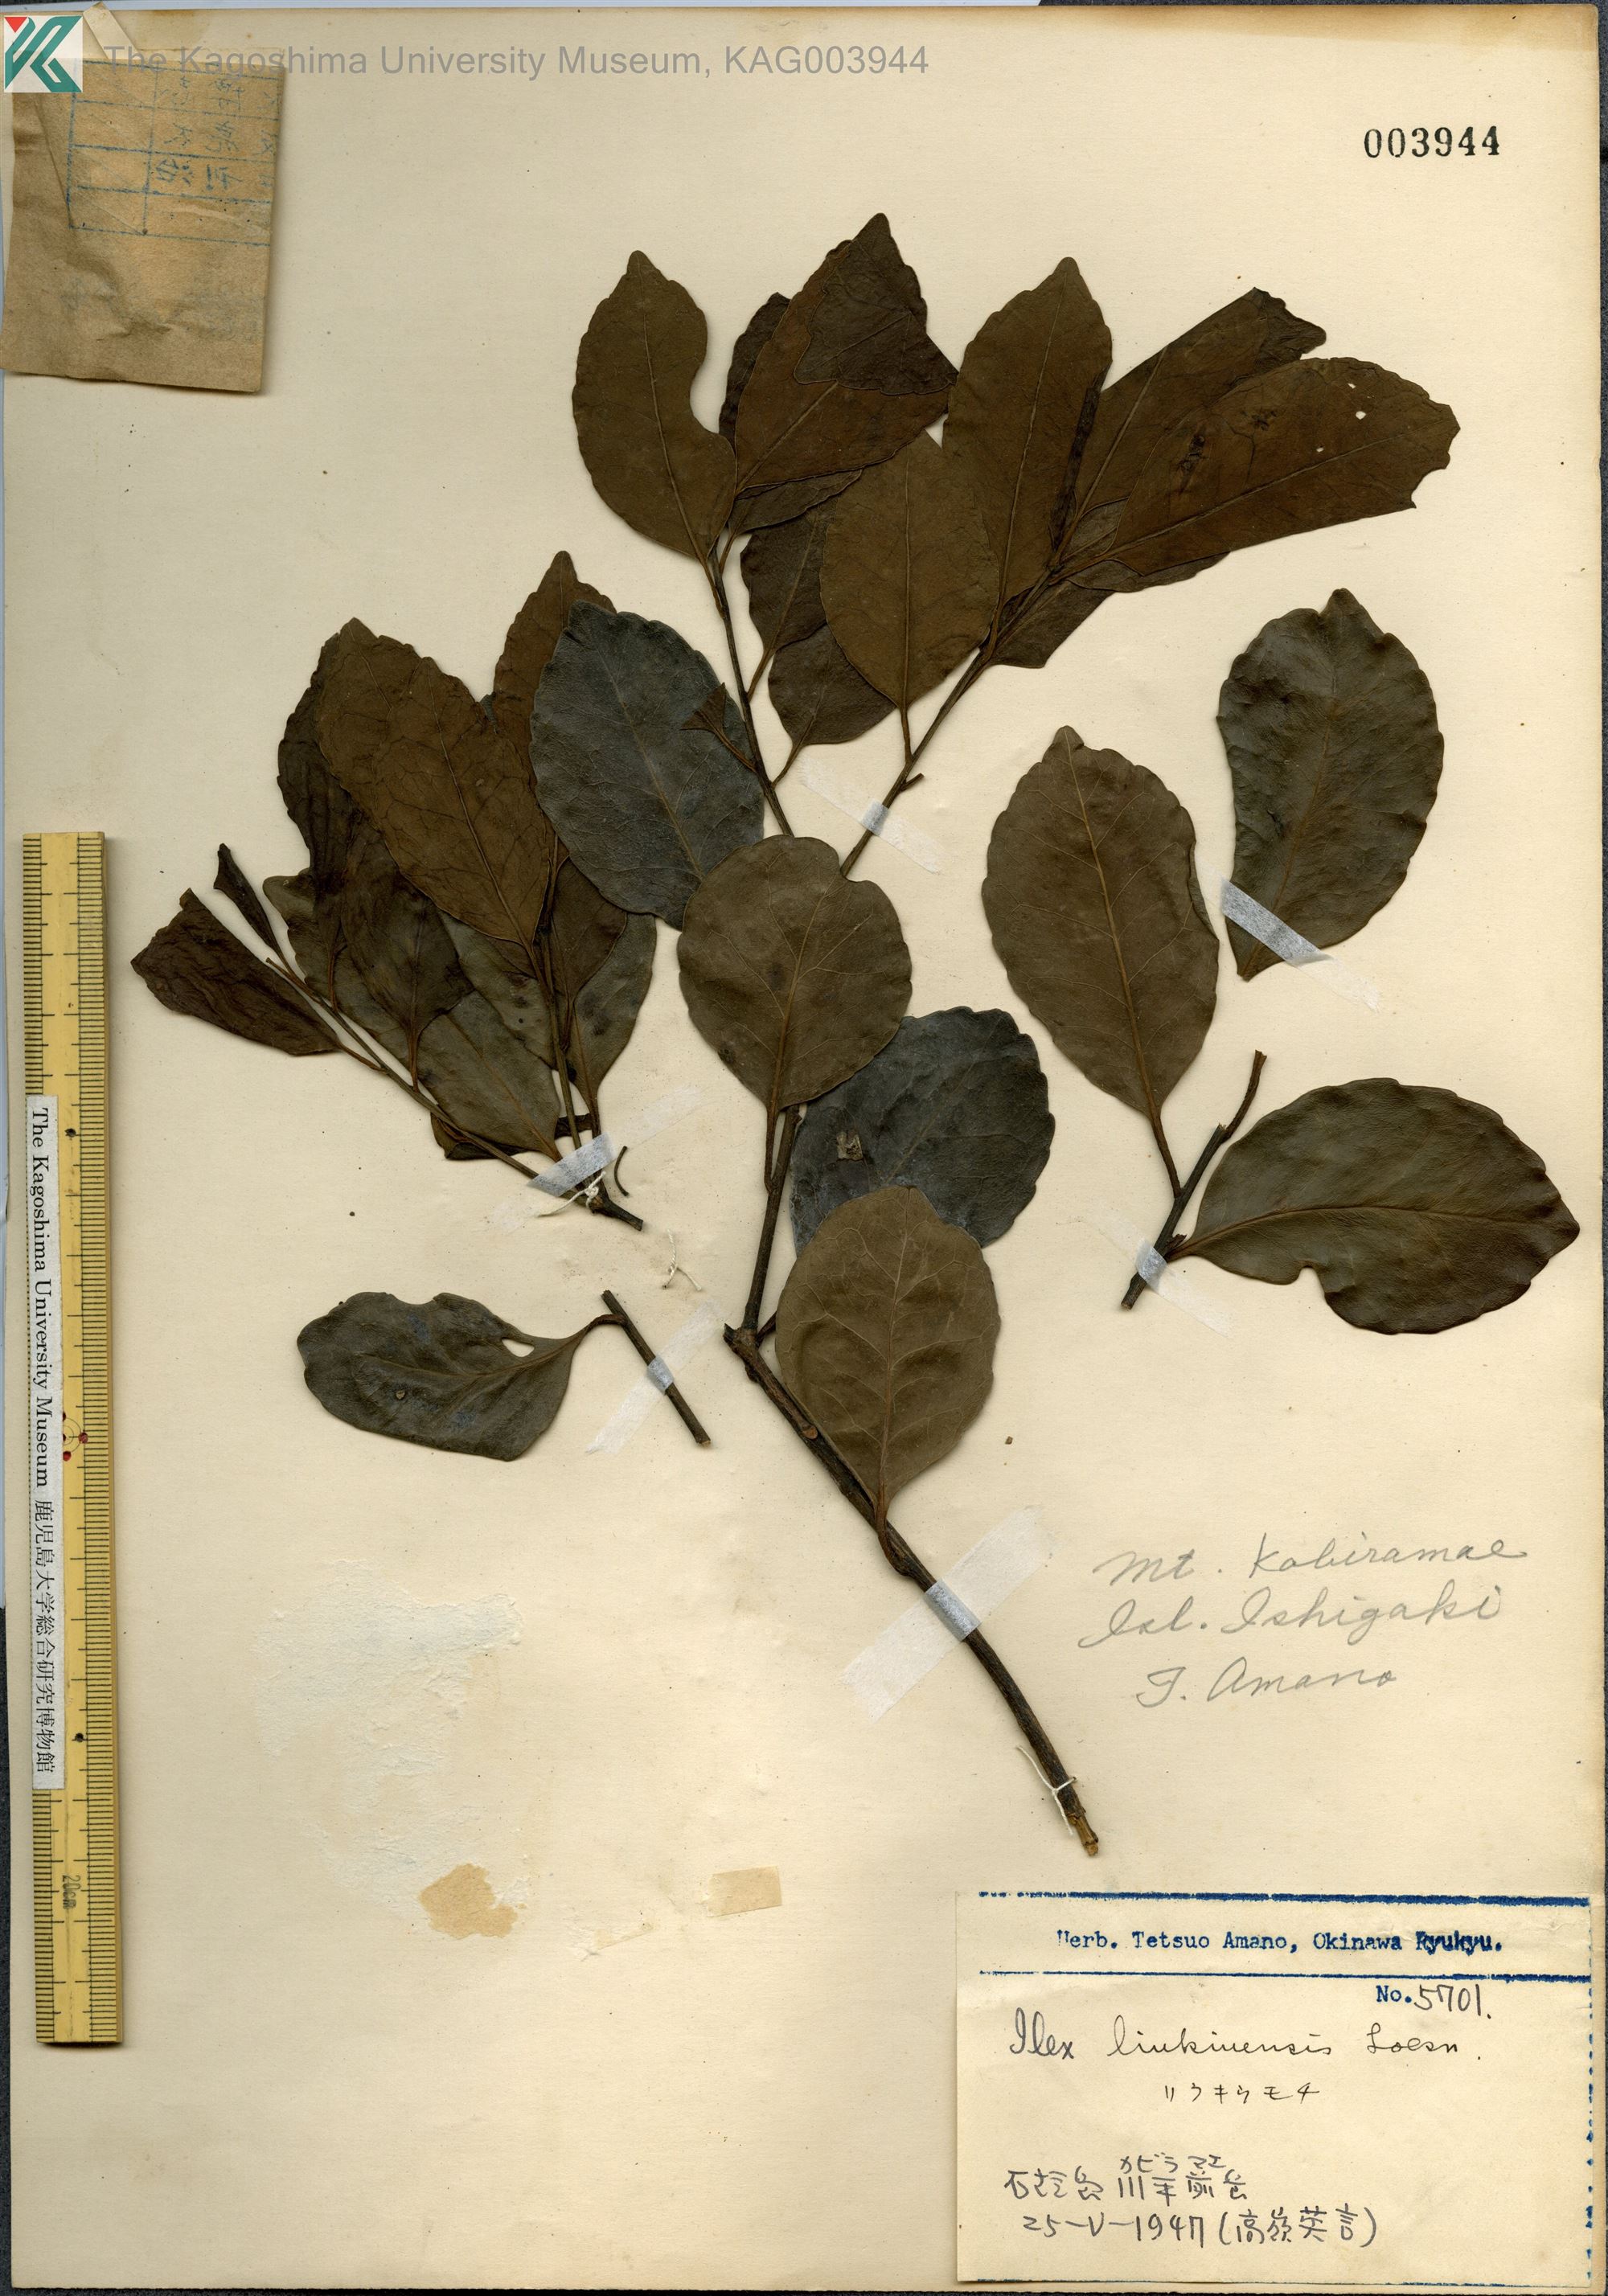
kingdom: Plantae
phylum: Tracheophyta
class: Magnoliopsida
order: Aquifoliales
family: Aquifoliaceae
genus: Ilex
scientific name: Ilex liukiuensis
